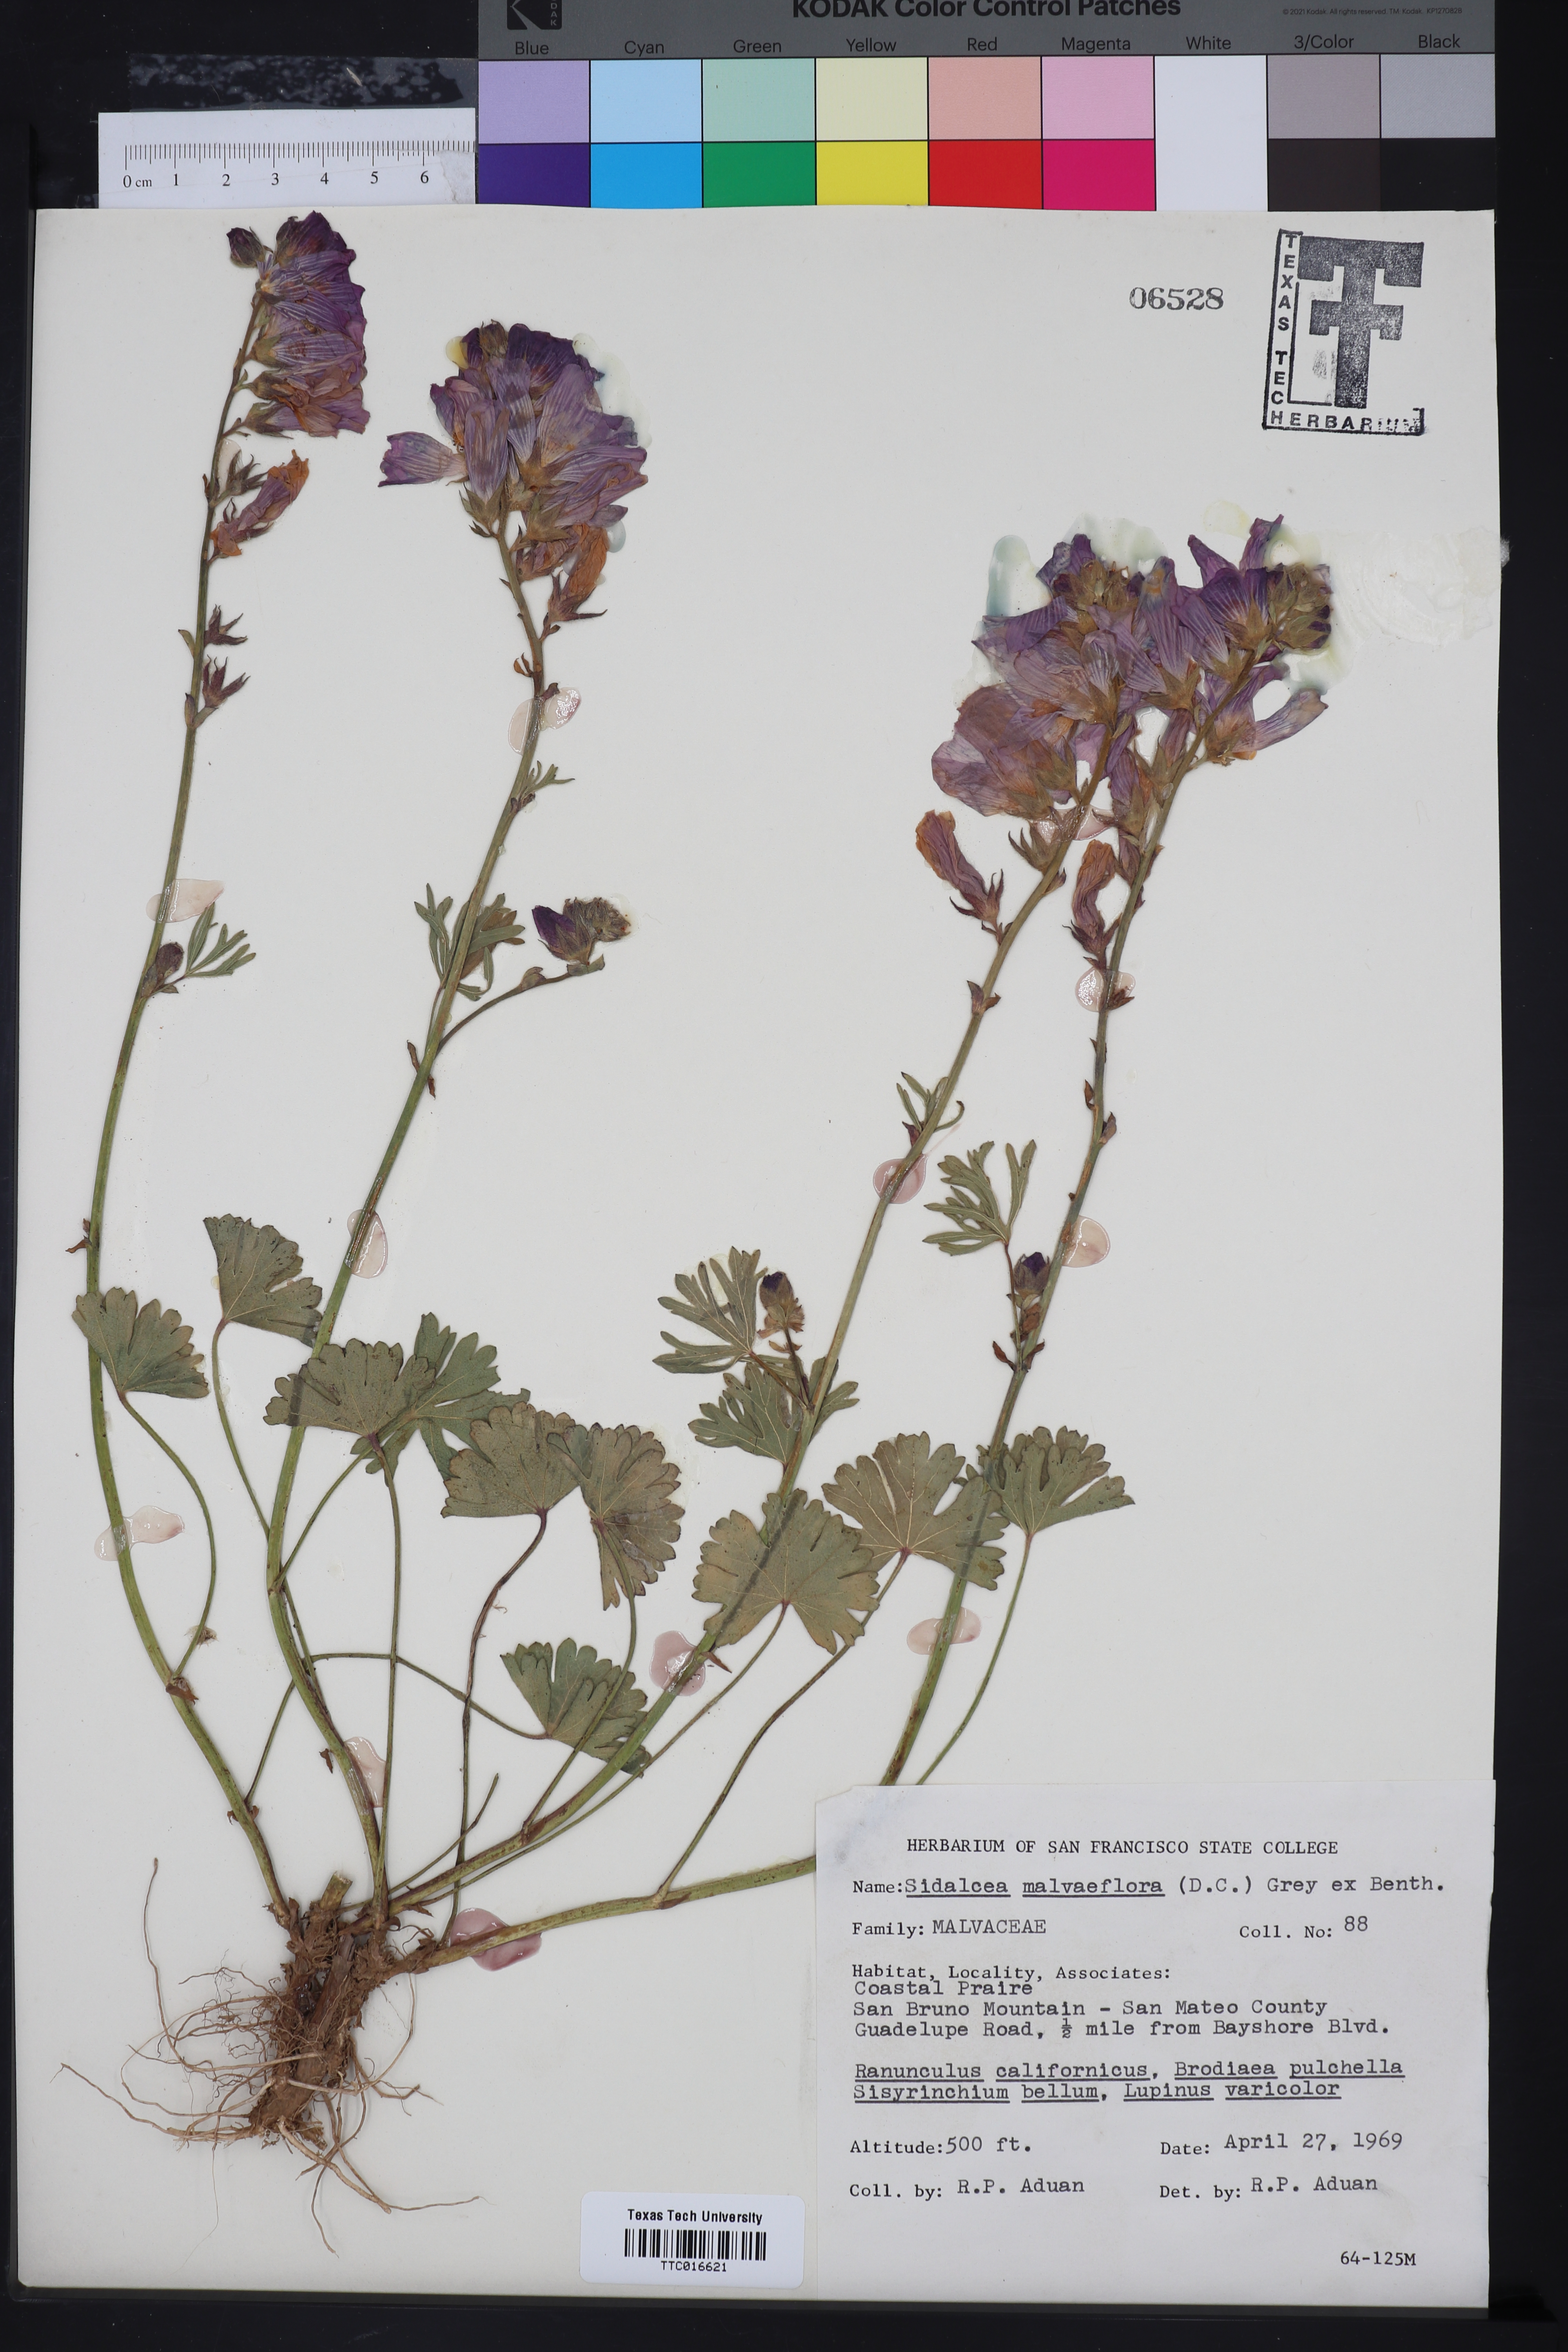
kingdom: Plantae
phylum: Tracheophyta
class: Magnoliopsida
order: Malvales
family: Malvaceae
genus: Sidalcea
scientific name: Sidalcea malviflora
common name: Greek mallow
